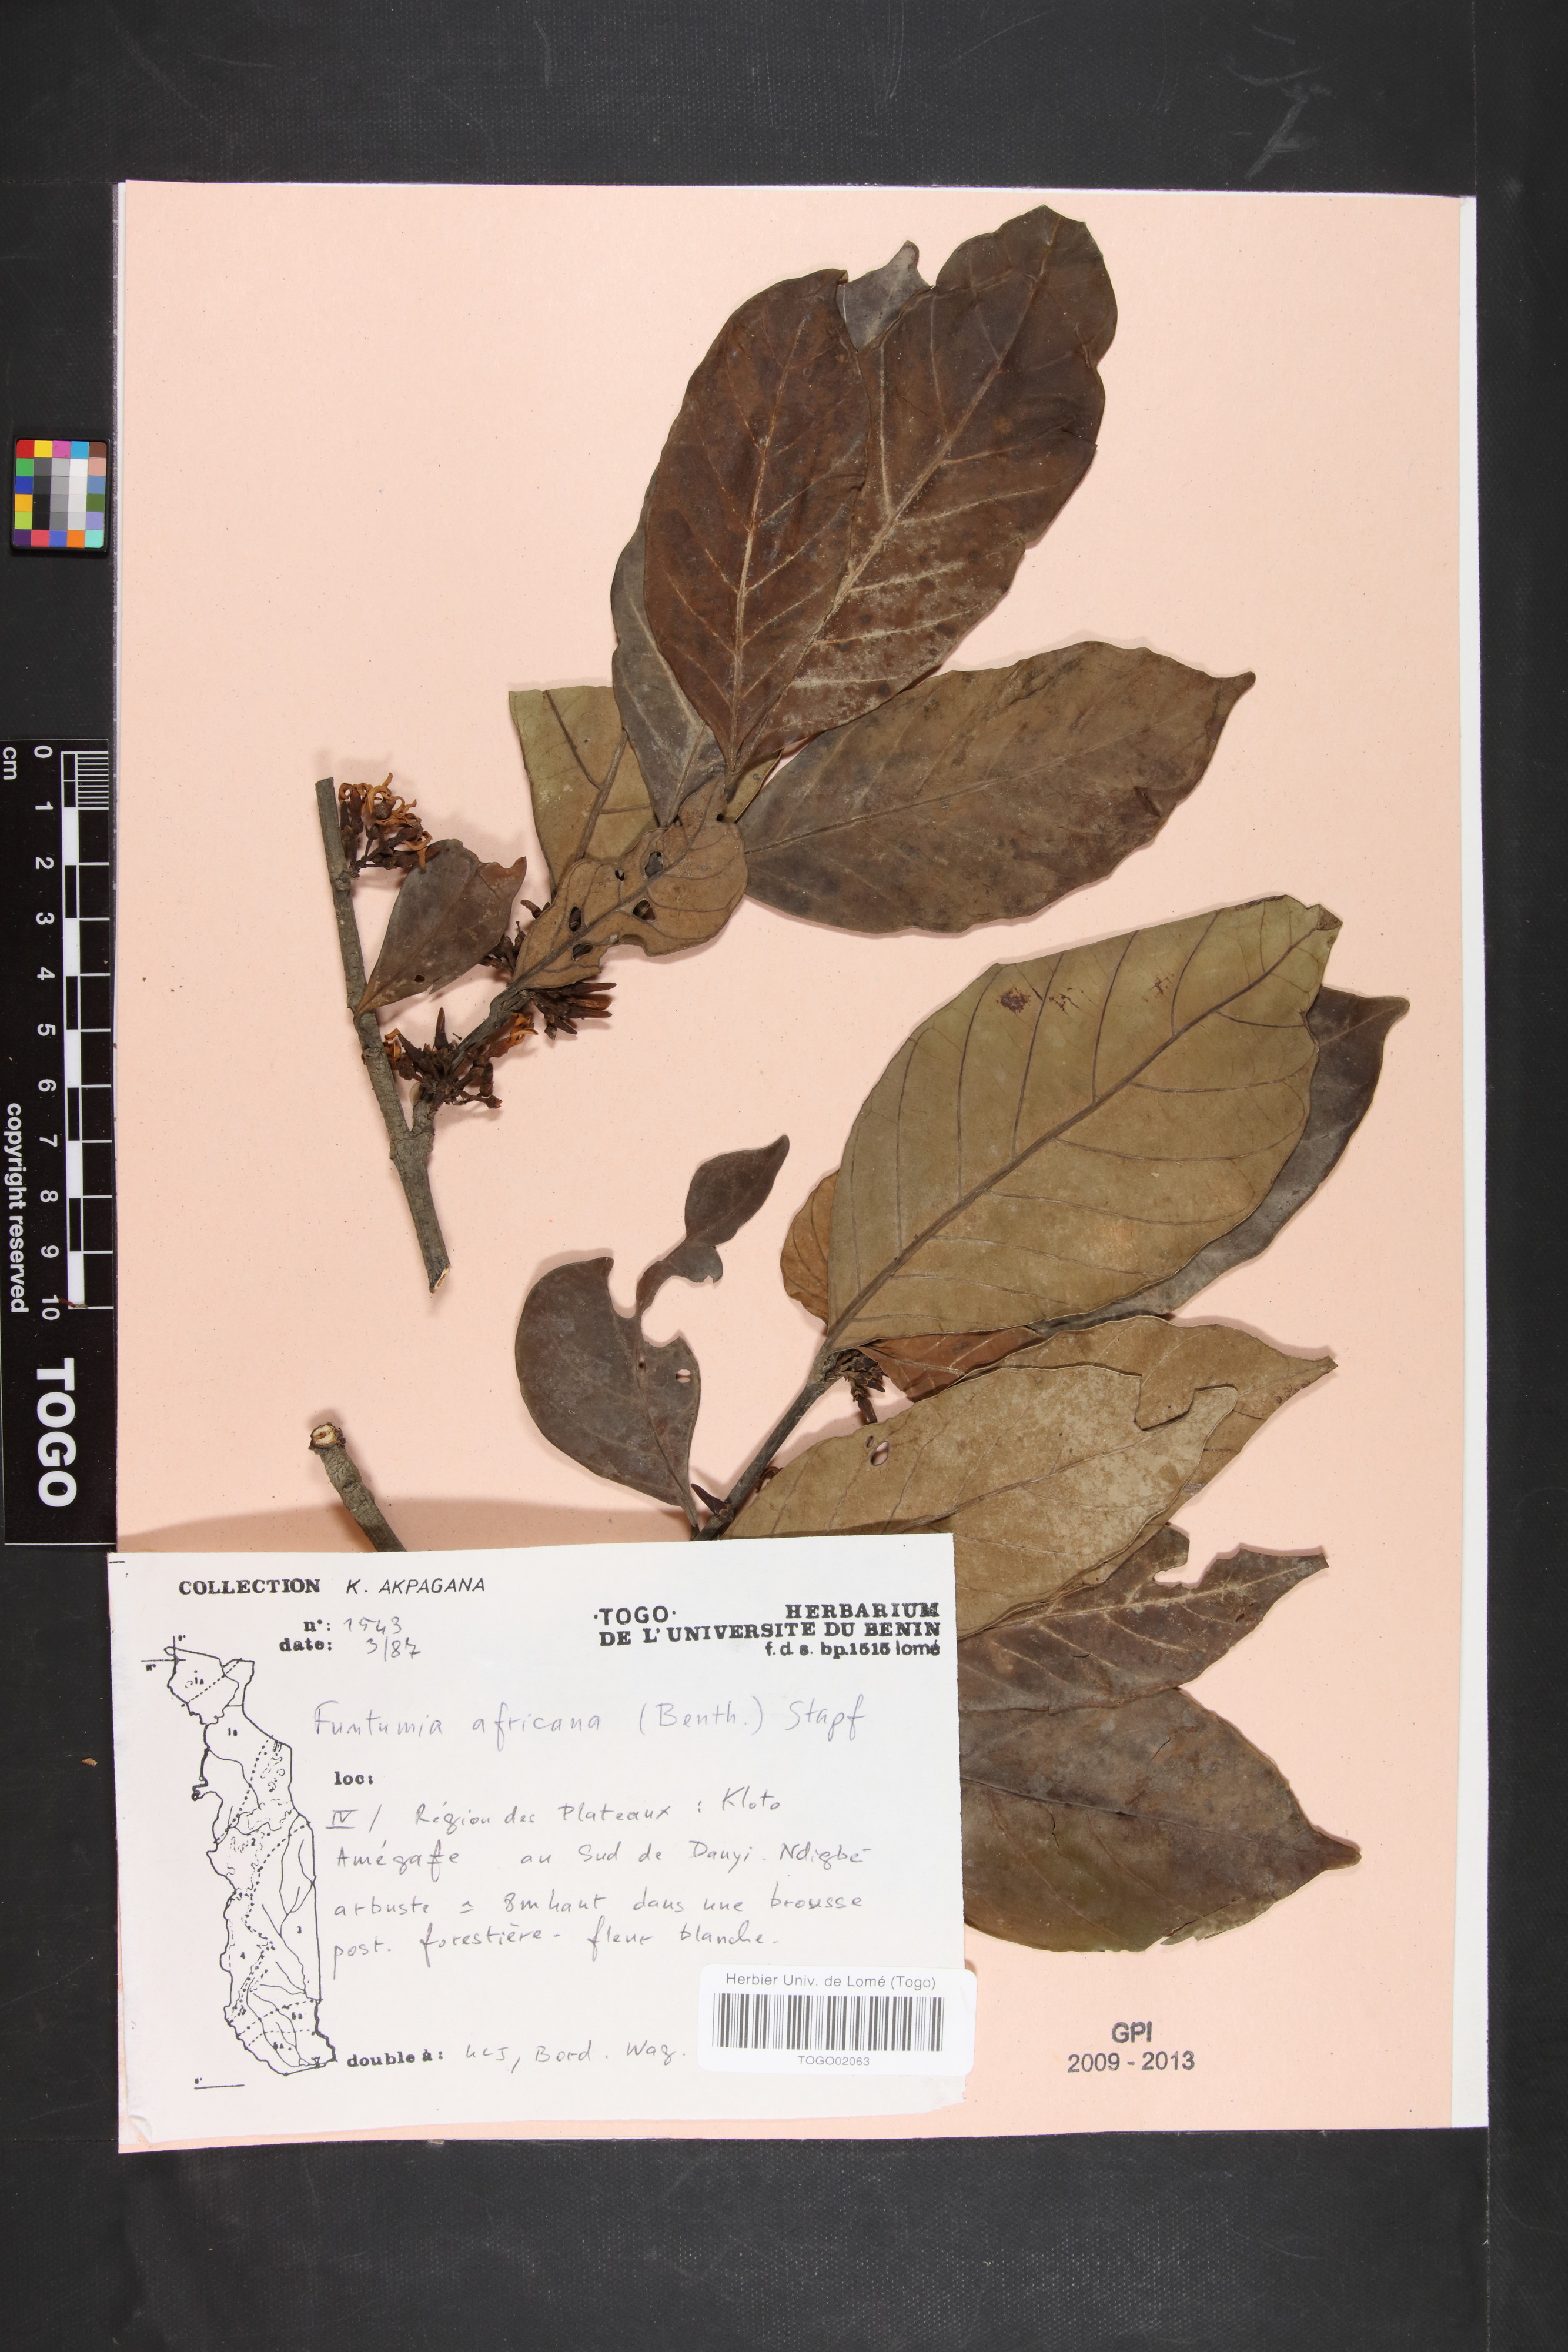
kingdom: Plantae
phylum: Tracheophyta
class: Magnoliopsida
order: Gentianales
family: Apocynaceae
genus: Funtumia
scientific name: Funtumia africana
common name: Lagos-rubber
